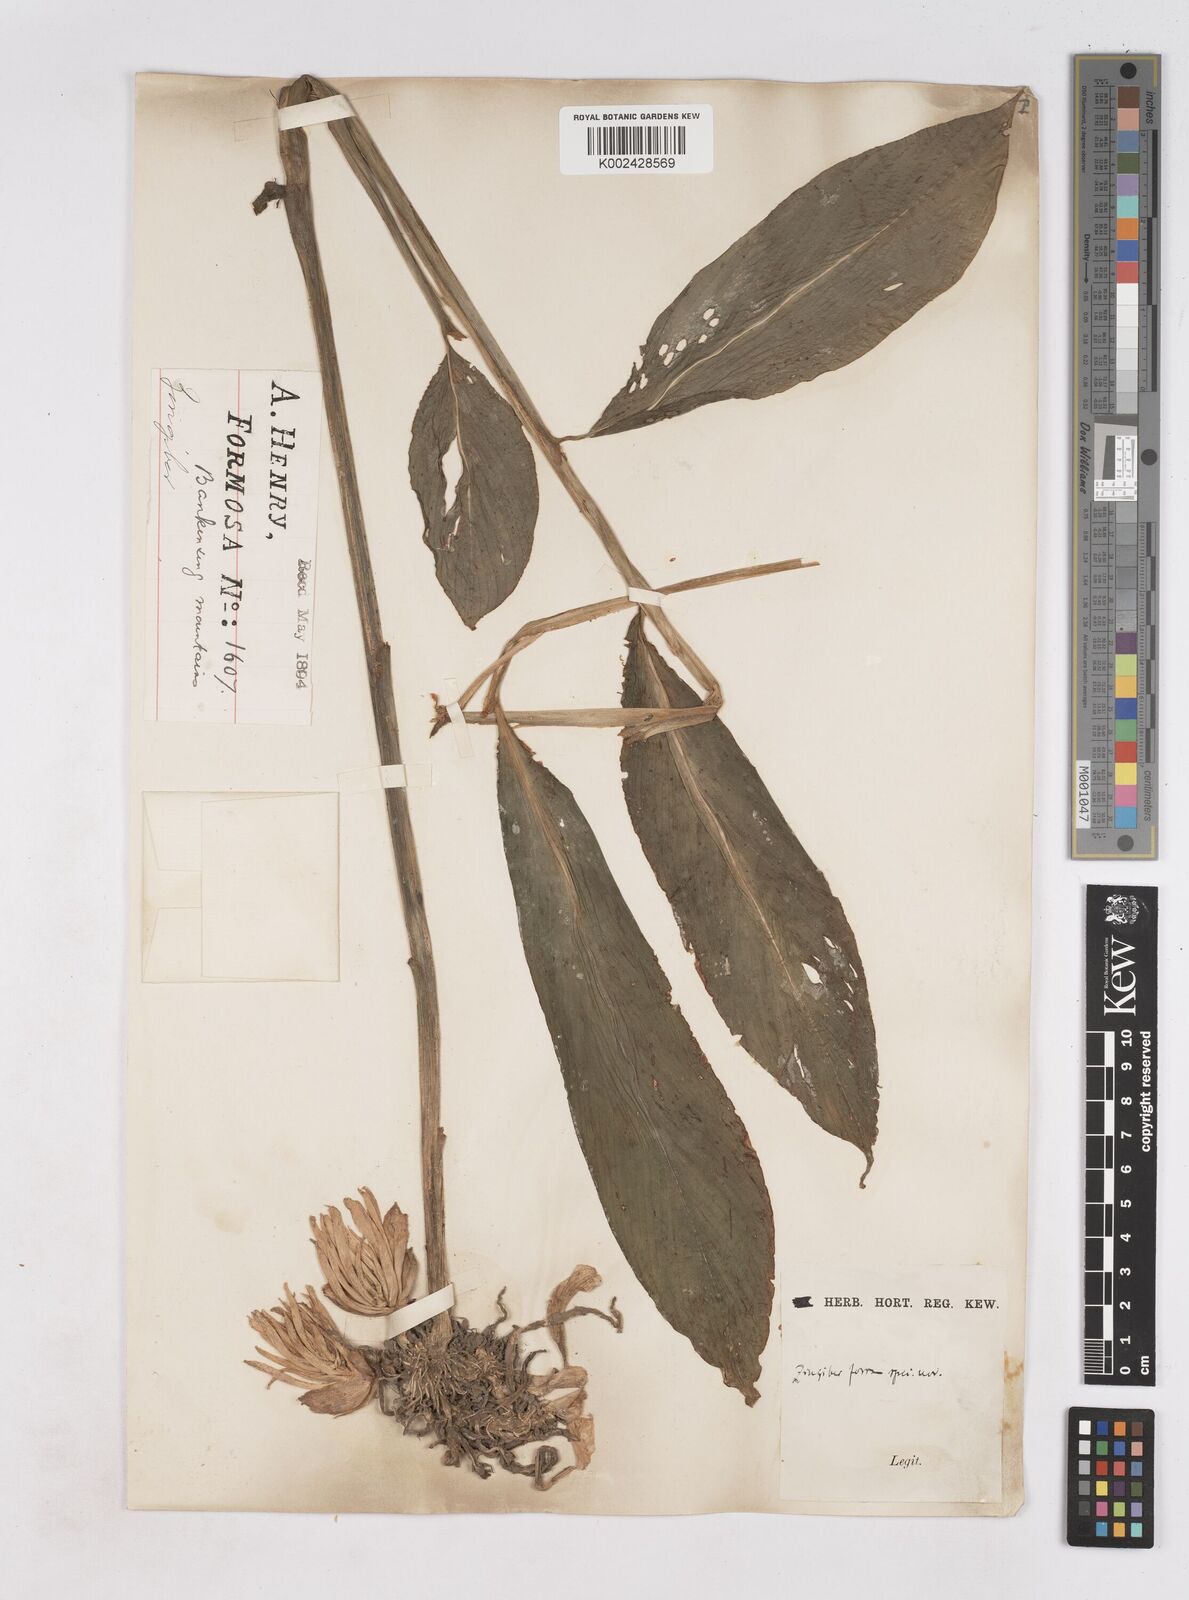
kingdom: Plantae
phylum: Tracheophyta
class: Liliopsida
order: Zingiberales
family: Zingiberaceae
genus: Zingiber
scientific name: Zingiber
